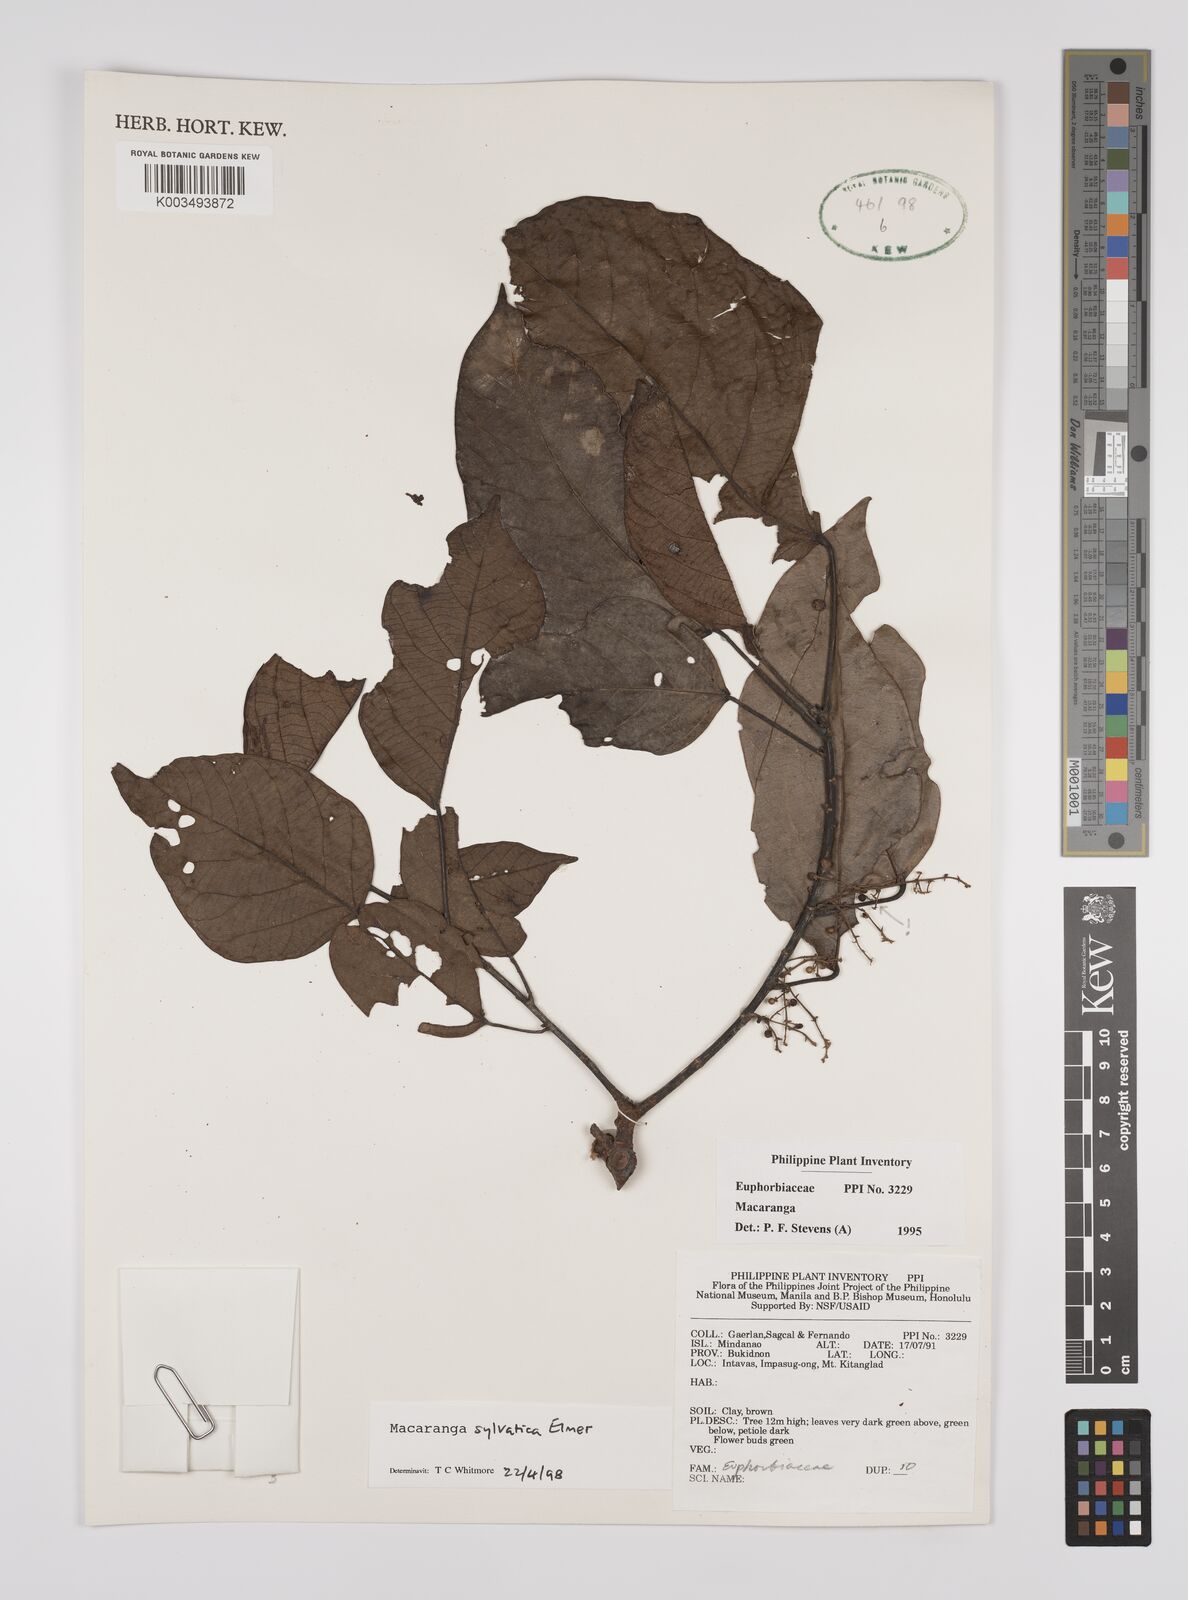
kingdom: Plantae
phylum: Tracheophyta
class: Magnoliopsida
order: Malpighiales
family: Euphorbiaceae
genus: Macaranga
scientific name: Macaranga sylvatica
